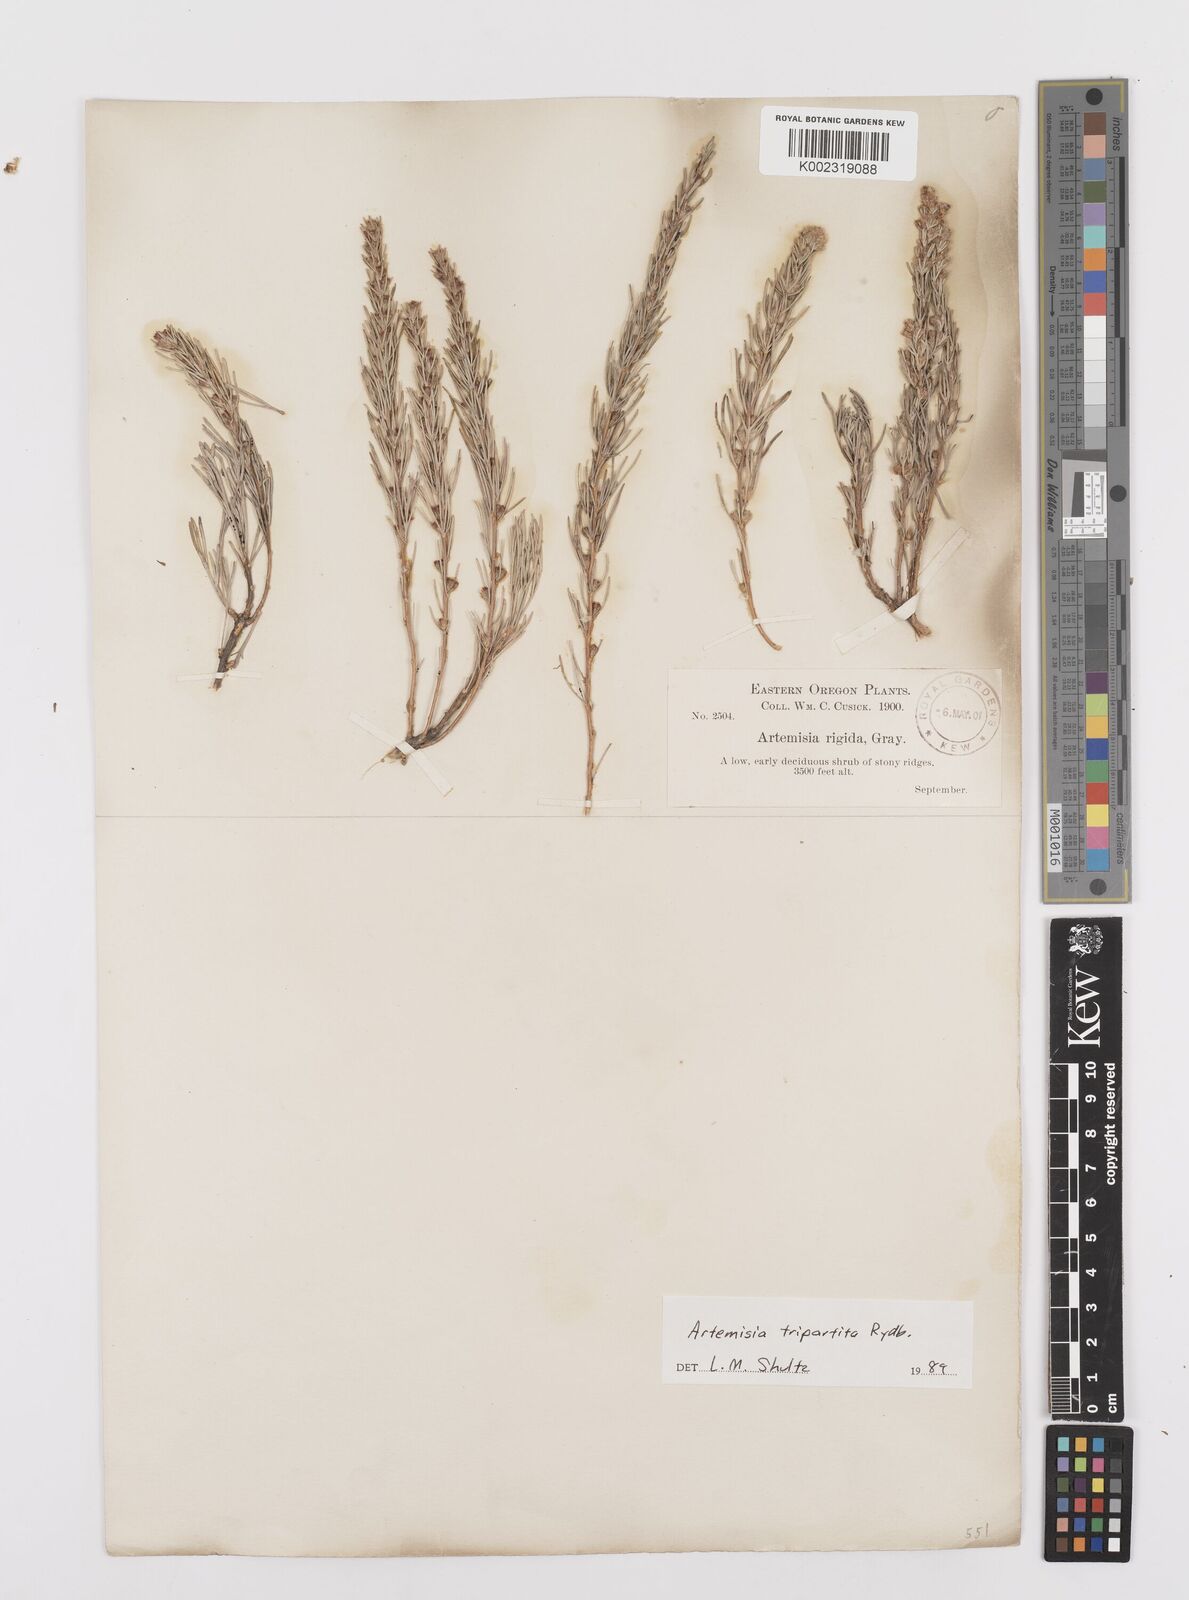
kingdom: Plantae
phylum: Tracheophyta
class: Magnoliopsida
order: Asterales
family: Asteraceae
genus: Artemisia
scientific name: Artemisia rigida
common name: Scabland sagebrush
